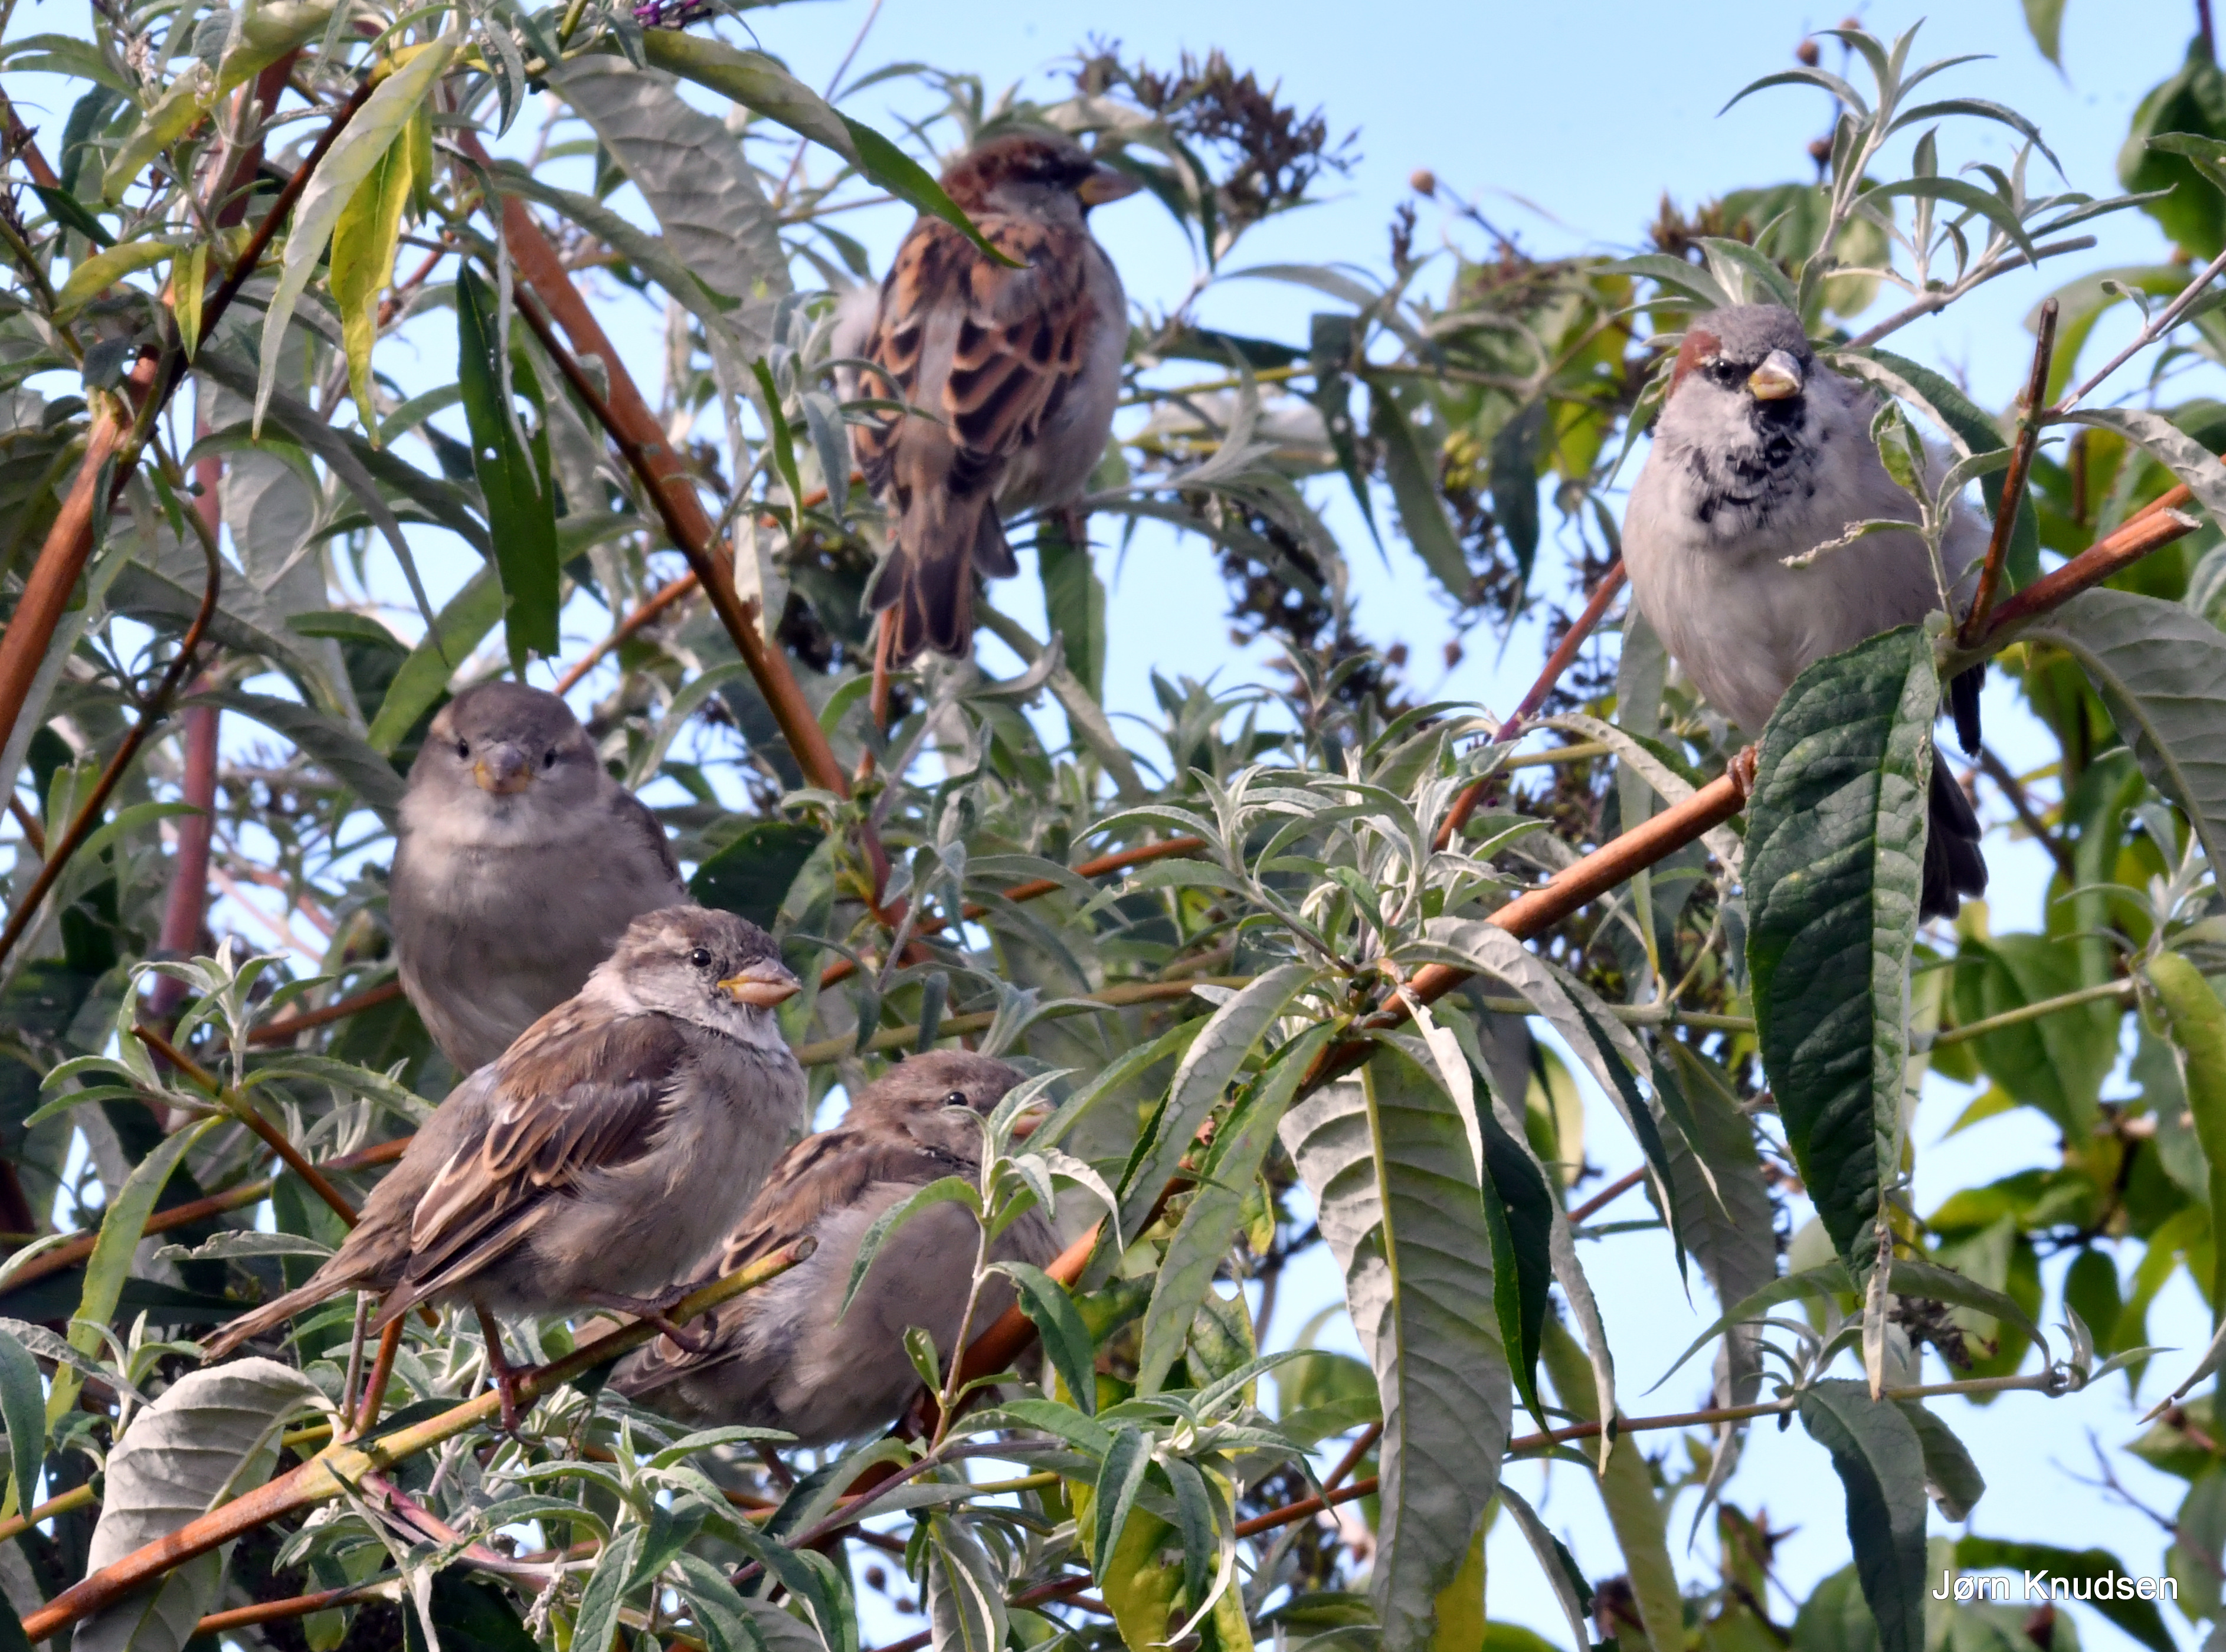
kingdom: Animalia
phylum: Chordata
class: Aves
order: Passeriformes
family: Passeridae
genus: Passer
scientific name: Passer domesticus
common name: Gråspurv
